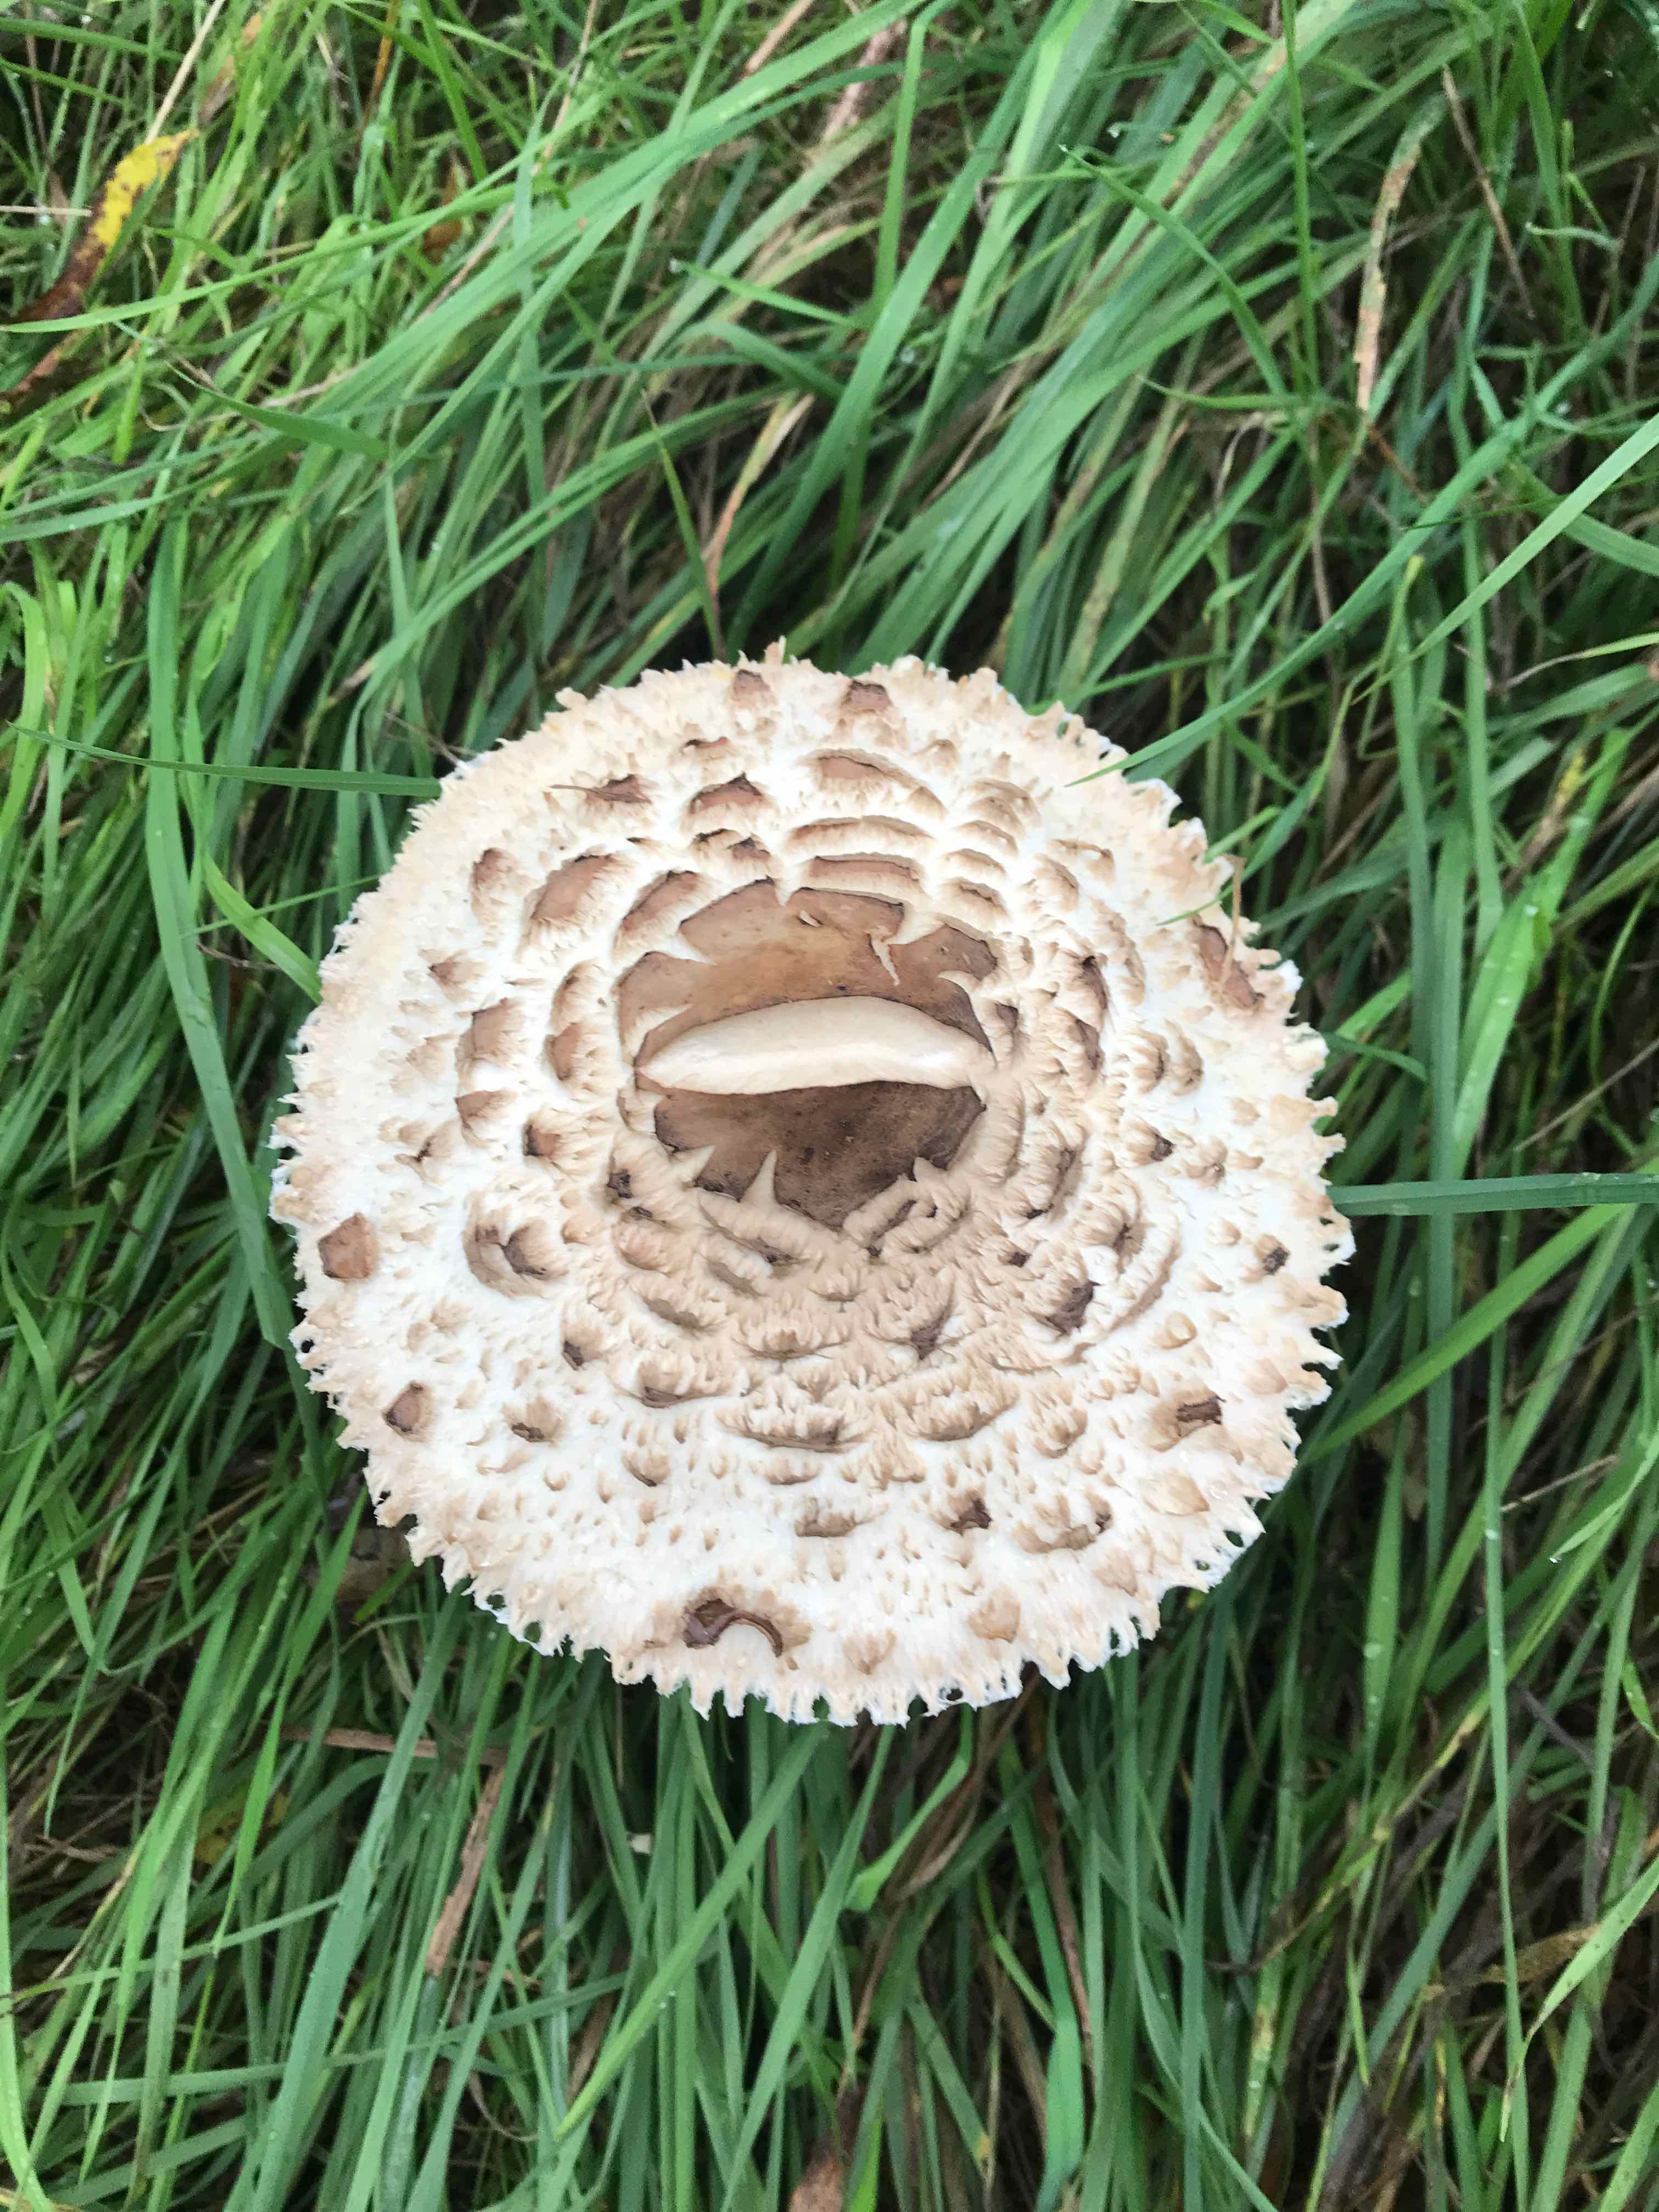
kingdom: Fungi
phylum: Basidiomycota
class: Agaricomycetes
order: Agaricales
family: Agaricaceae
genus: Chlorophyllum
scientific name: Chlorophyllum rhacodes
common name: ægte rabarberhat
